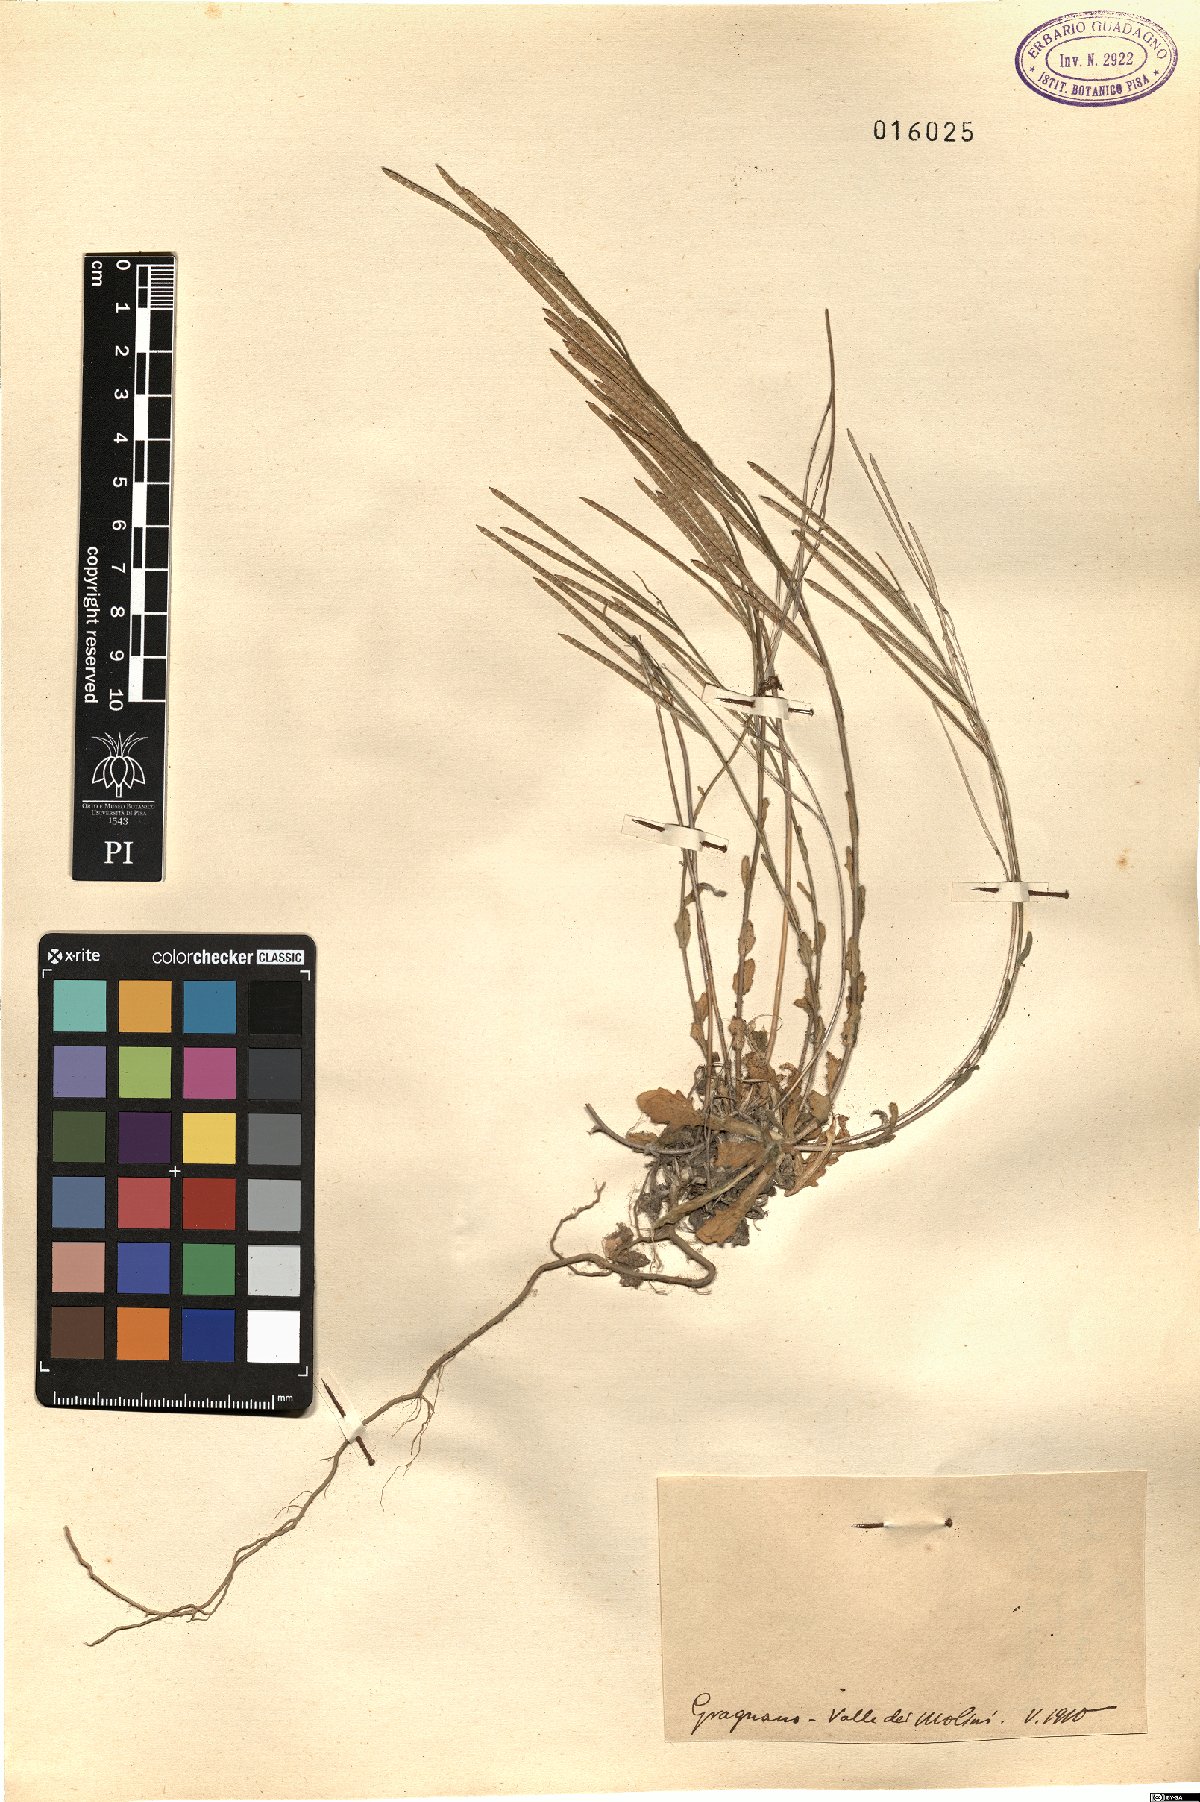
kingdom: Plantae
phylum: Tracheophyta
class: Magnoliopsida
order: Brassicales
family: Brassicaceae
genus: Arabis
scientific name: Arabis
